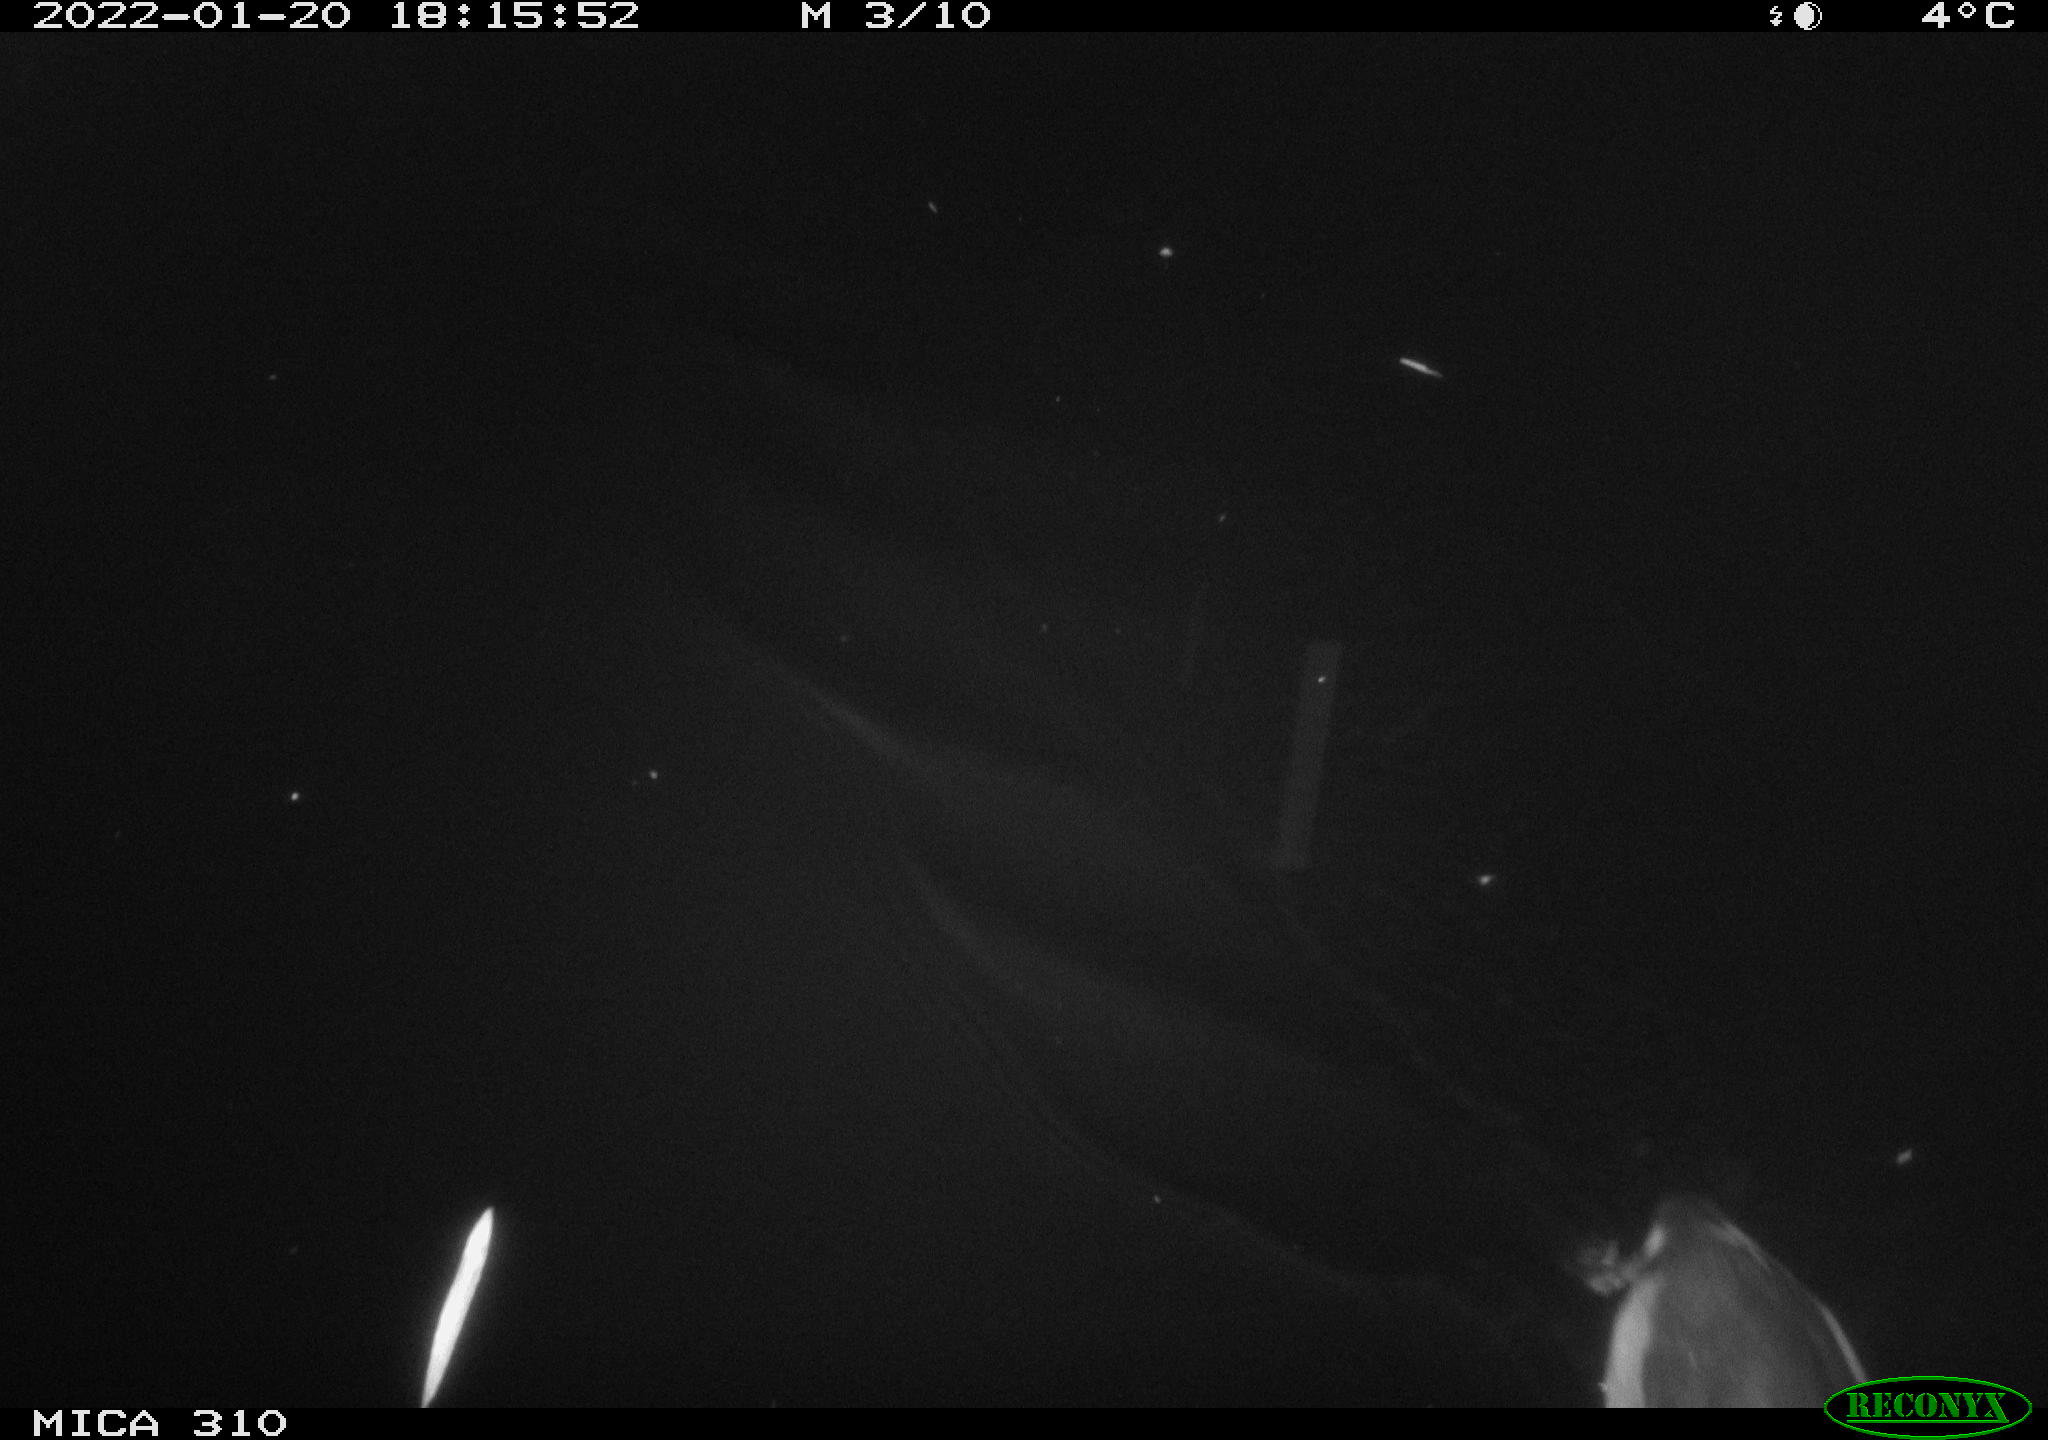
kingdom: Animalia
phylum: Chordata
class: Aves
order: Anseriformes
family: Anatidae
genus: Anas
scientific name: Anas
